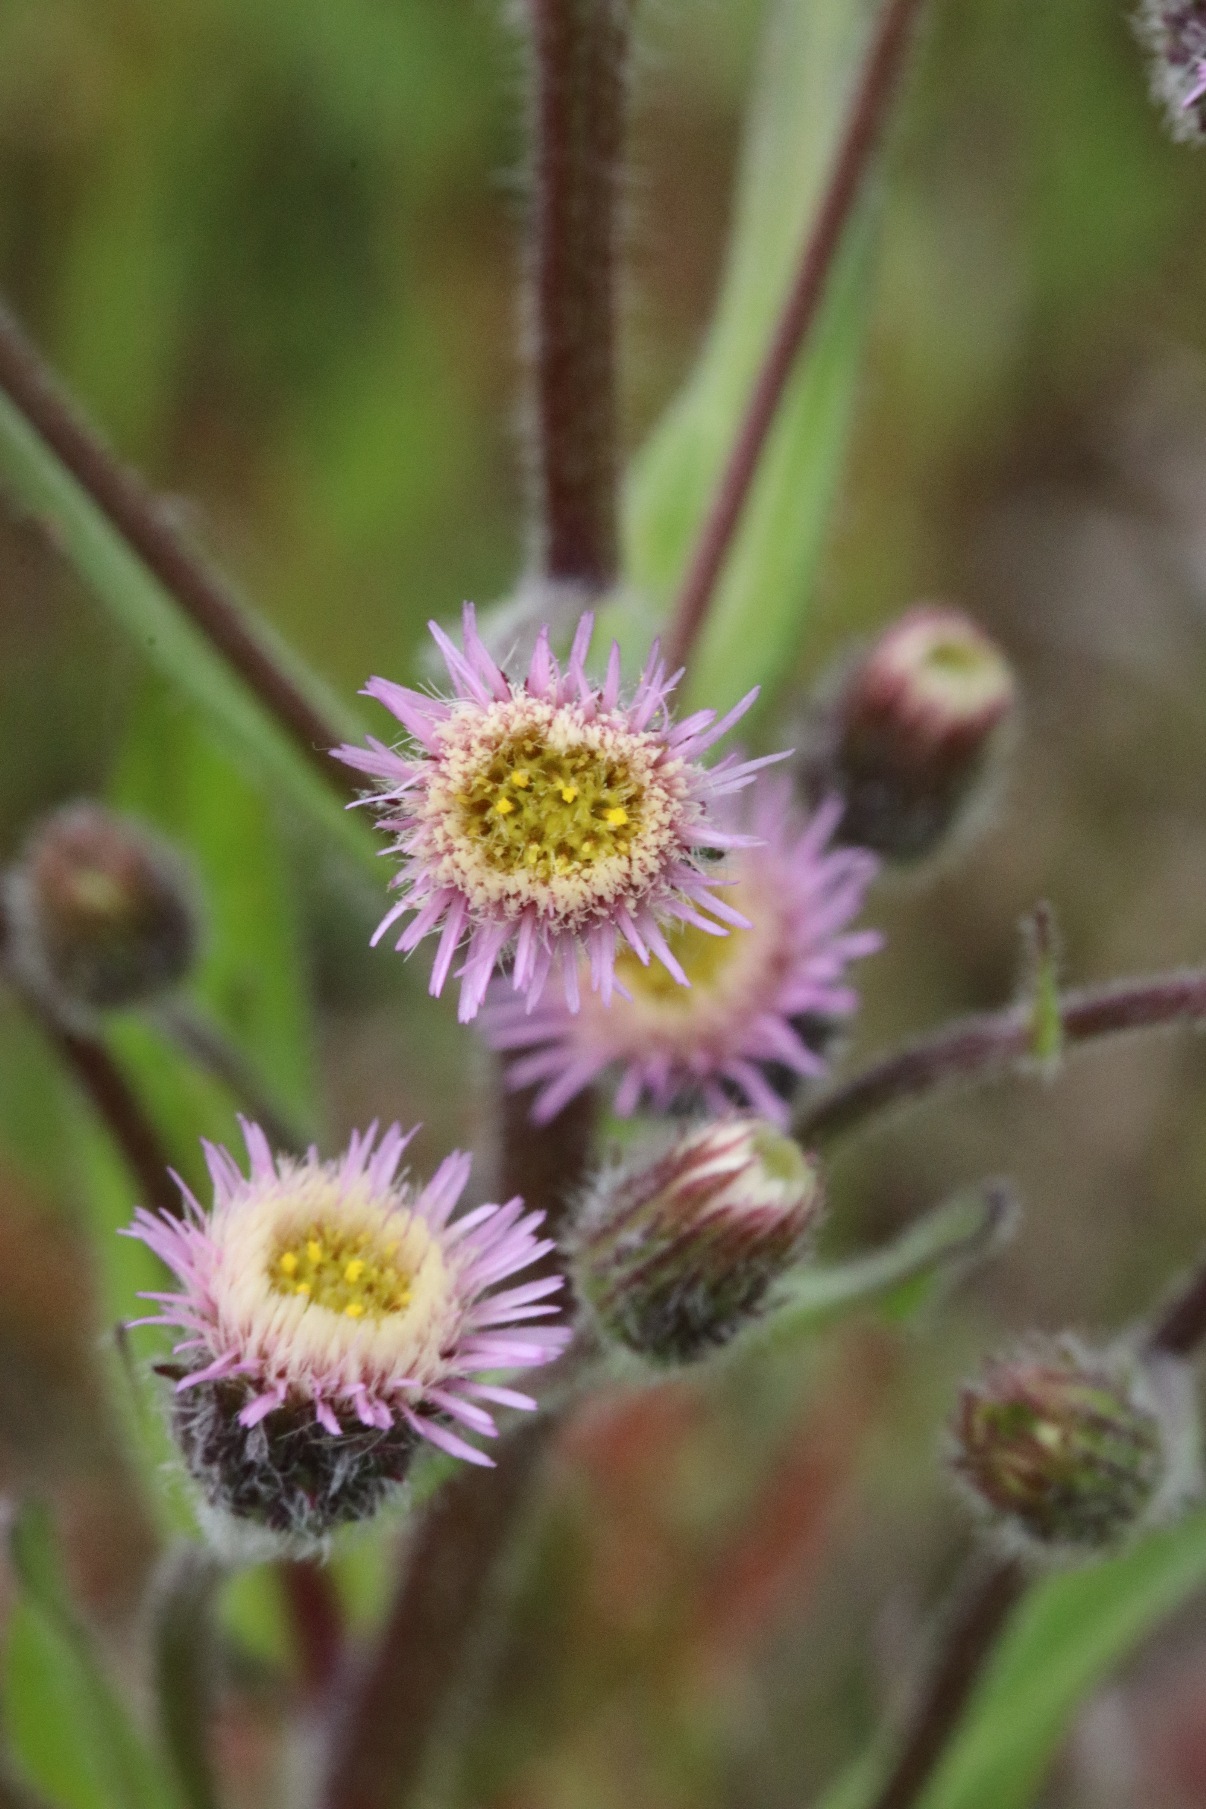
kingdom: Plantae
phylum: Tracheophyta
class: Magnoliopsida
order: Asterales
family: Asteraceae
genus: Erigeron
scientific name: Erigeron acris
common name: Bitter bakkestjerne
